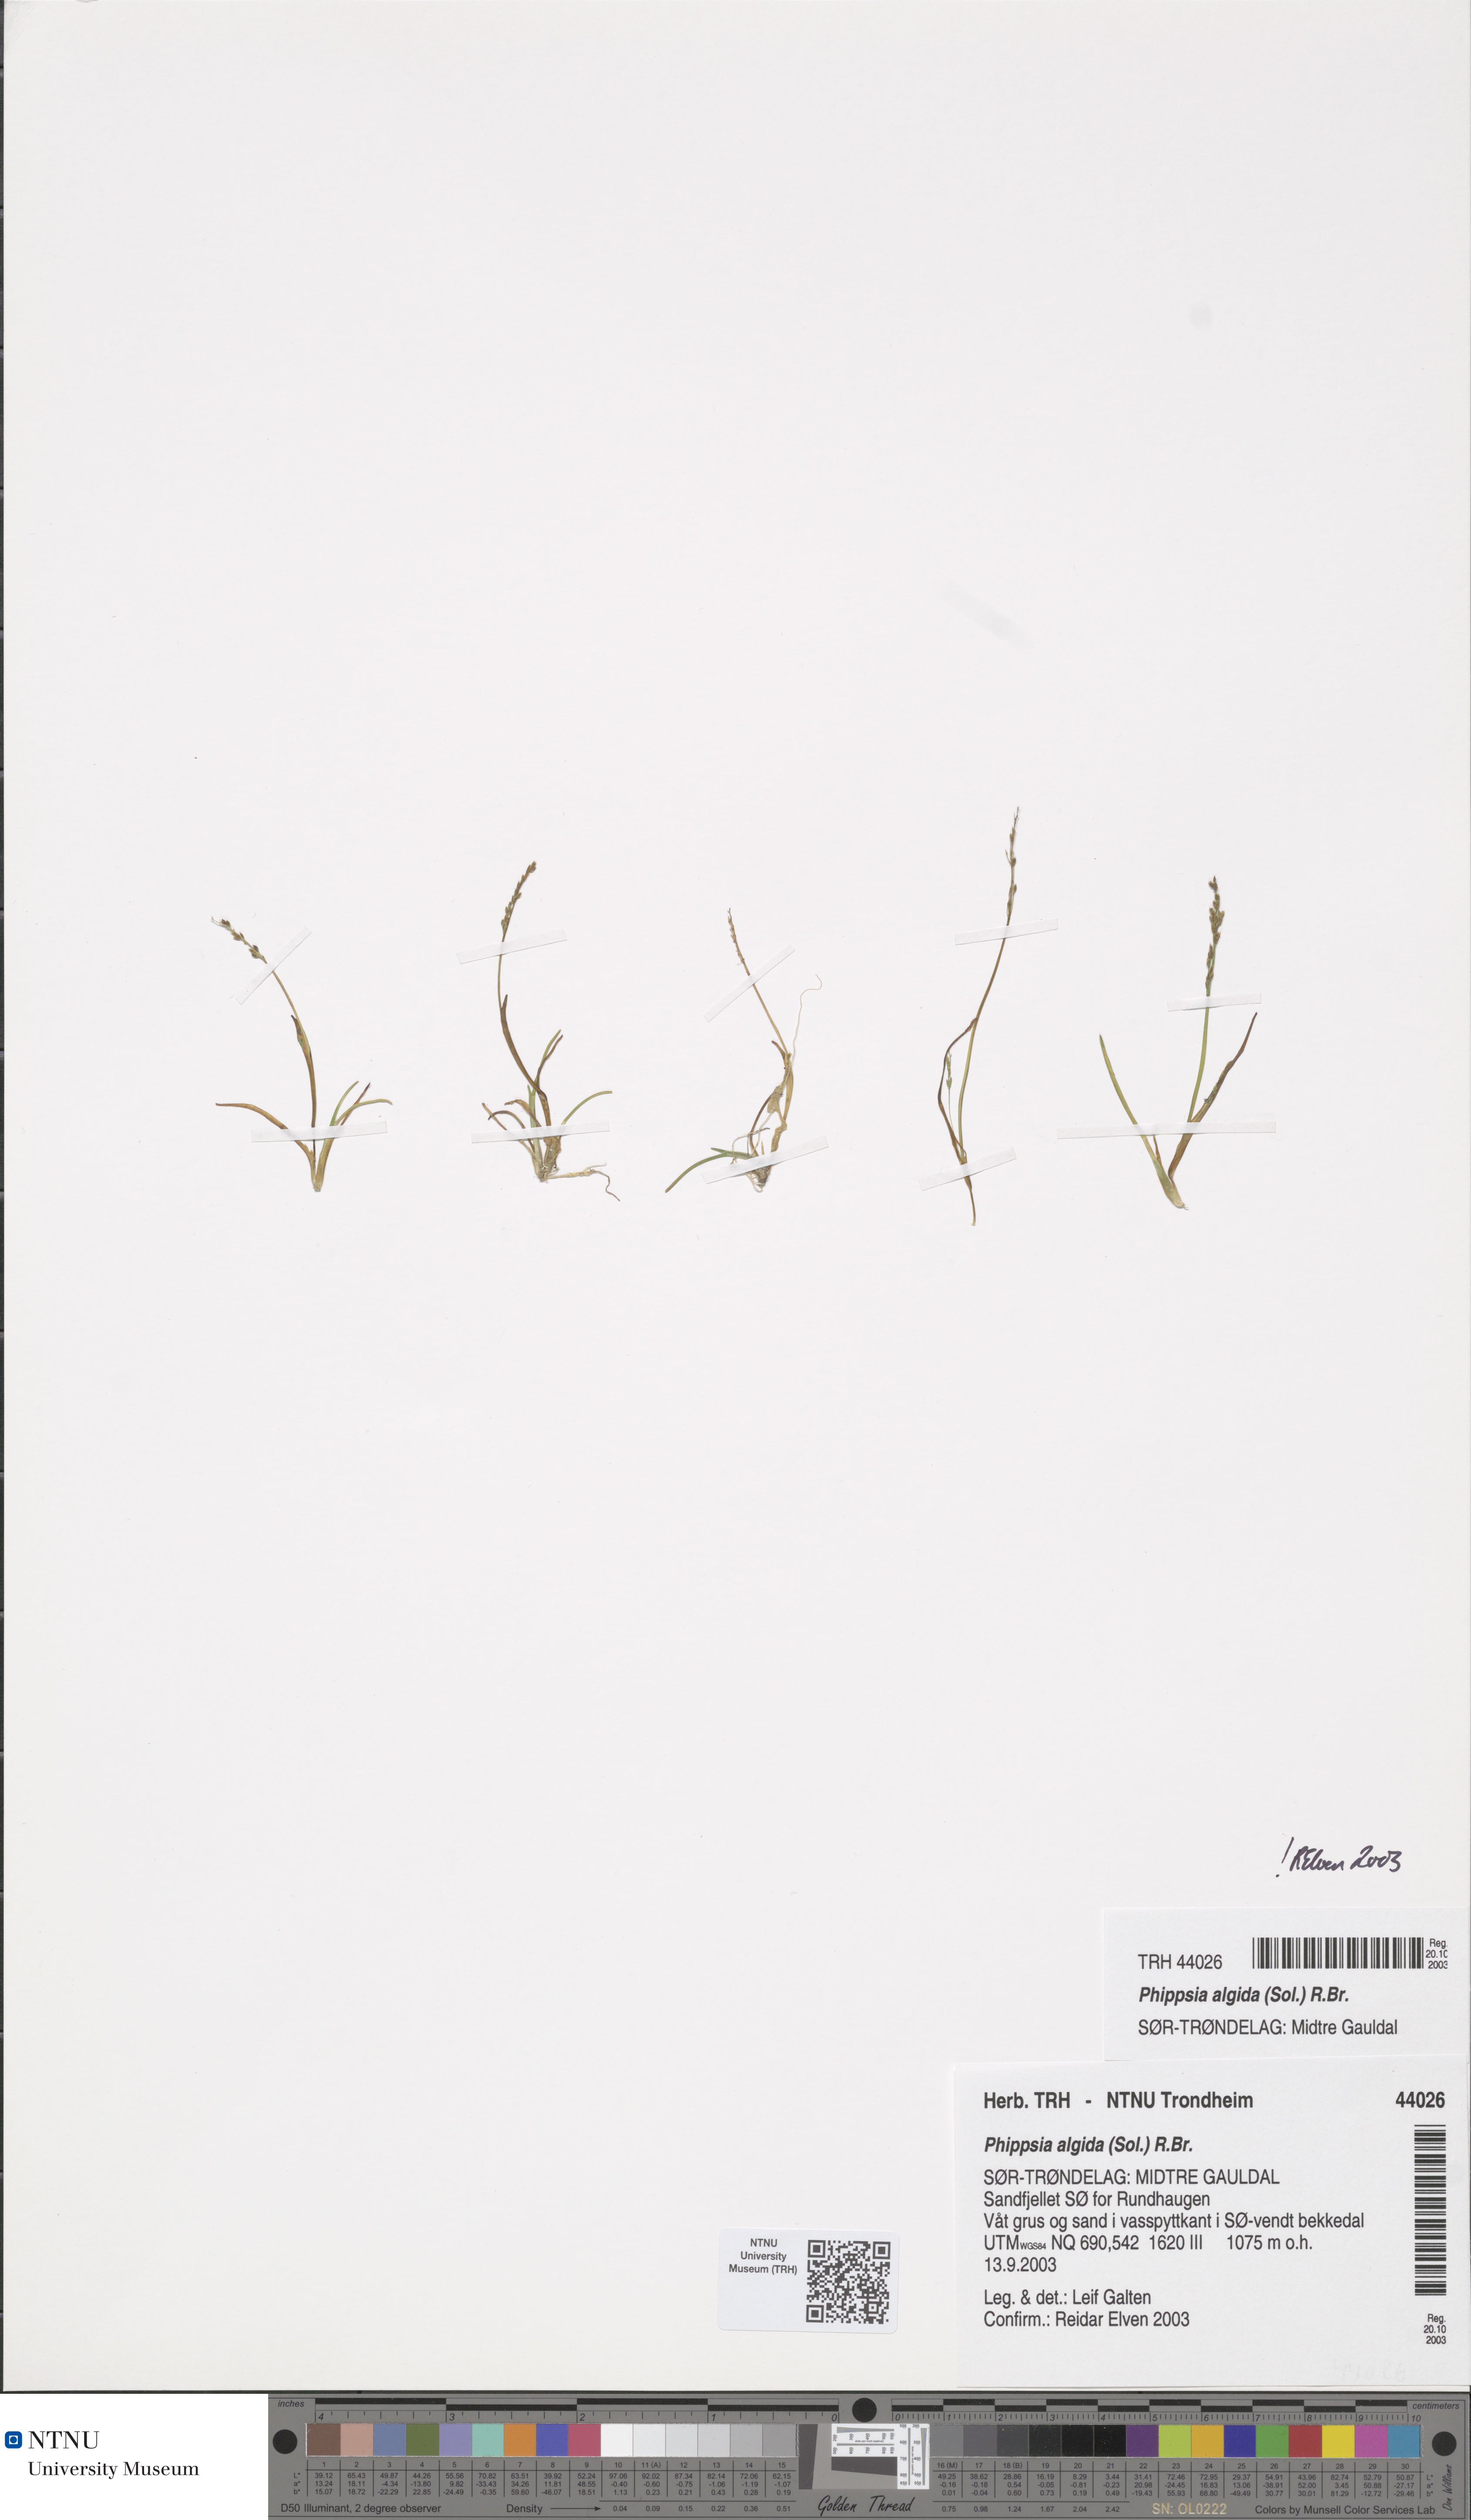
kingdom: Plantae
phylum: Tracheophyta
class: Liliopsida
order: Poales
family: Poaceae
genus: Phippsia
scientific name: Phippsia algida
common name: Ice grass
